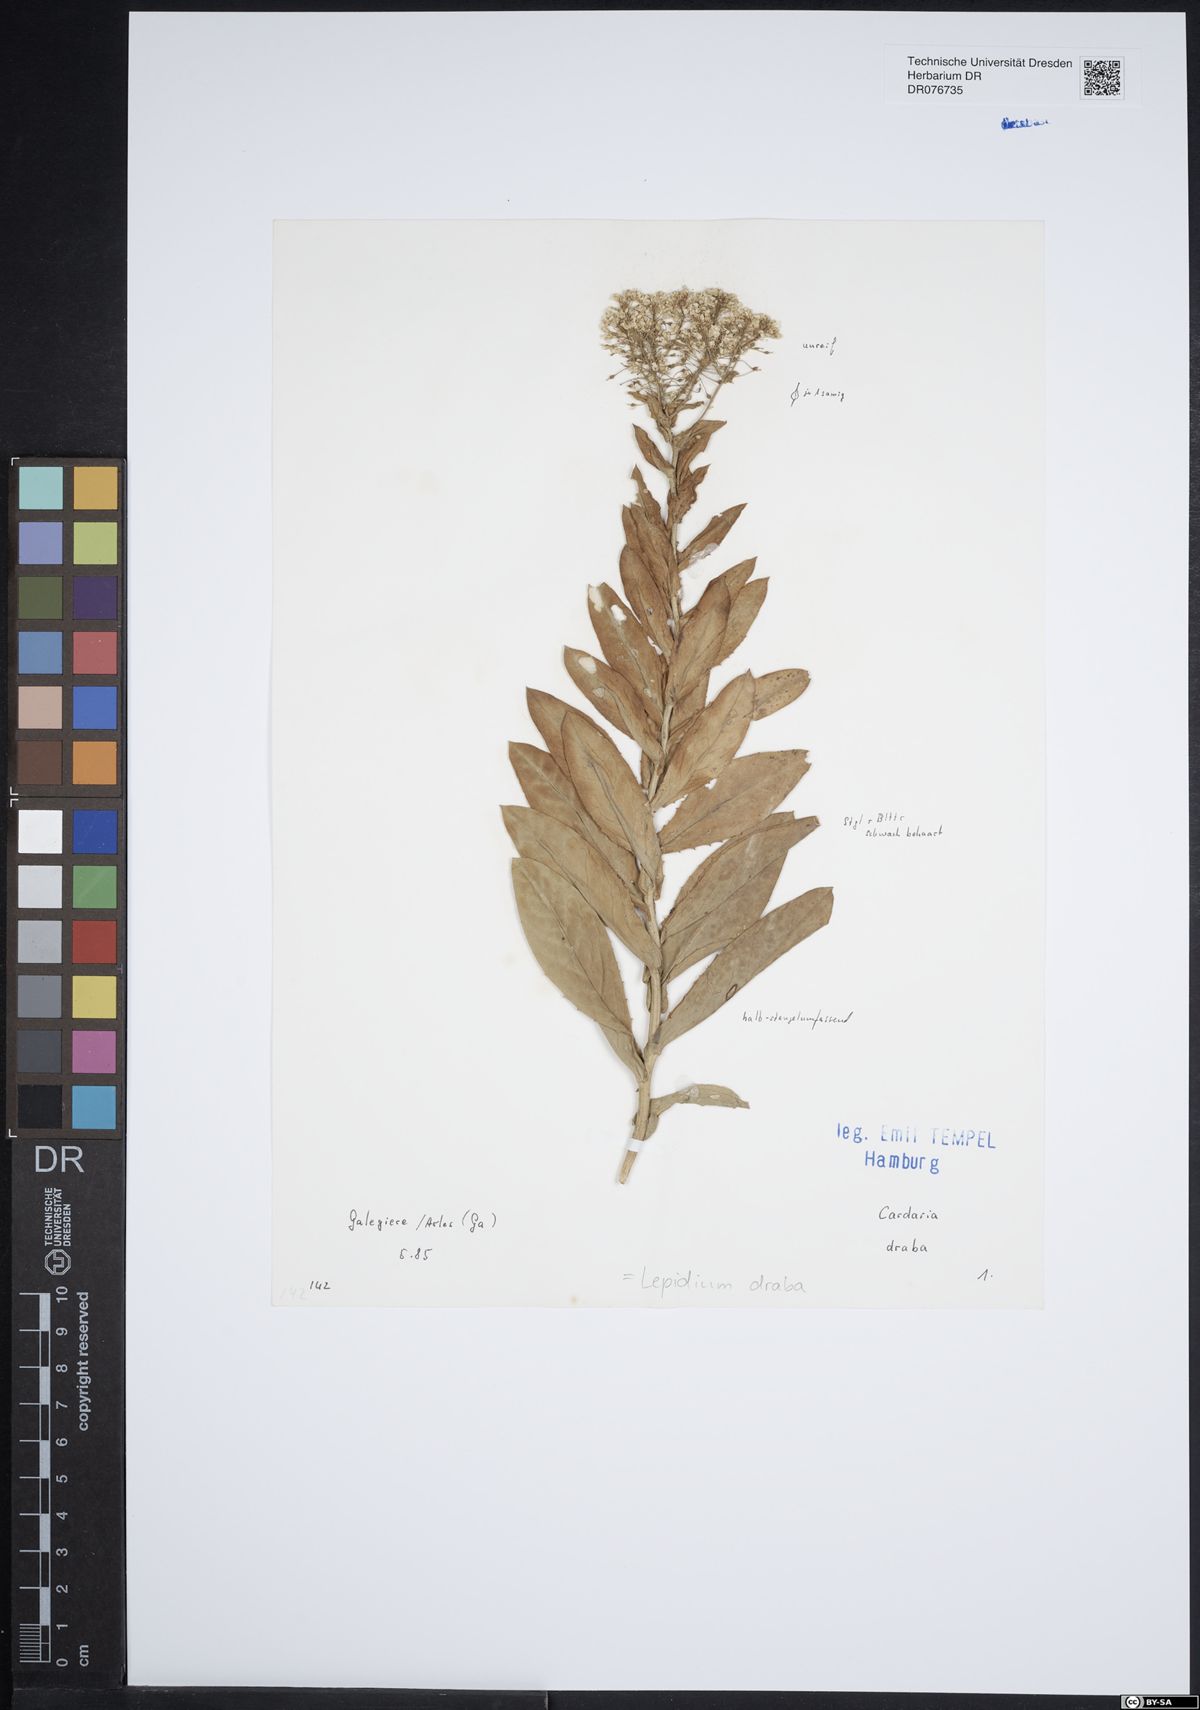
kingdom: Plantae
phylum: Tracheophyta
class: Magnoliopsida
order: Brassicales
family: Brassicaceae
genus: Lepidium
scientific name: Lepidium draba
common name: Hoary cress
